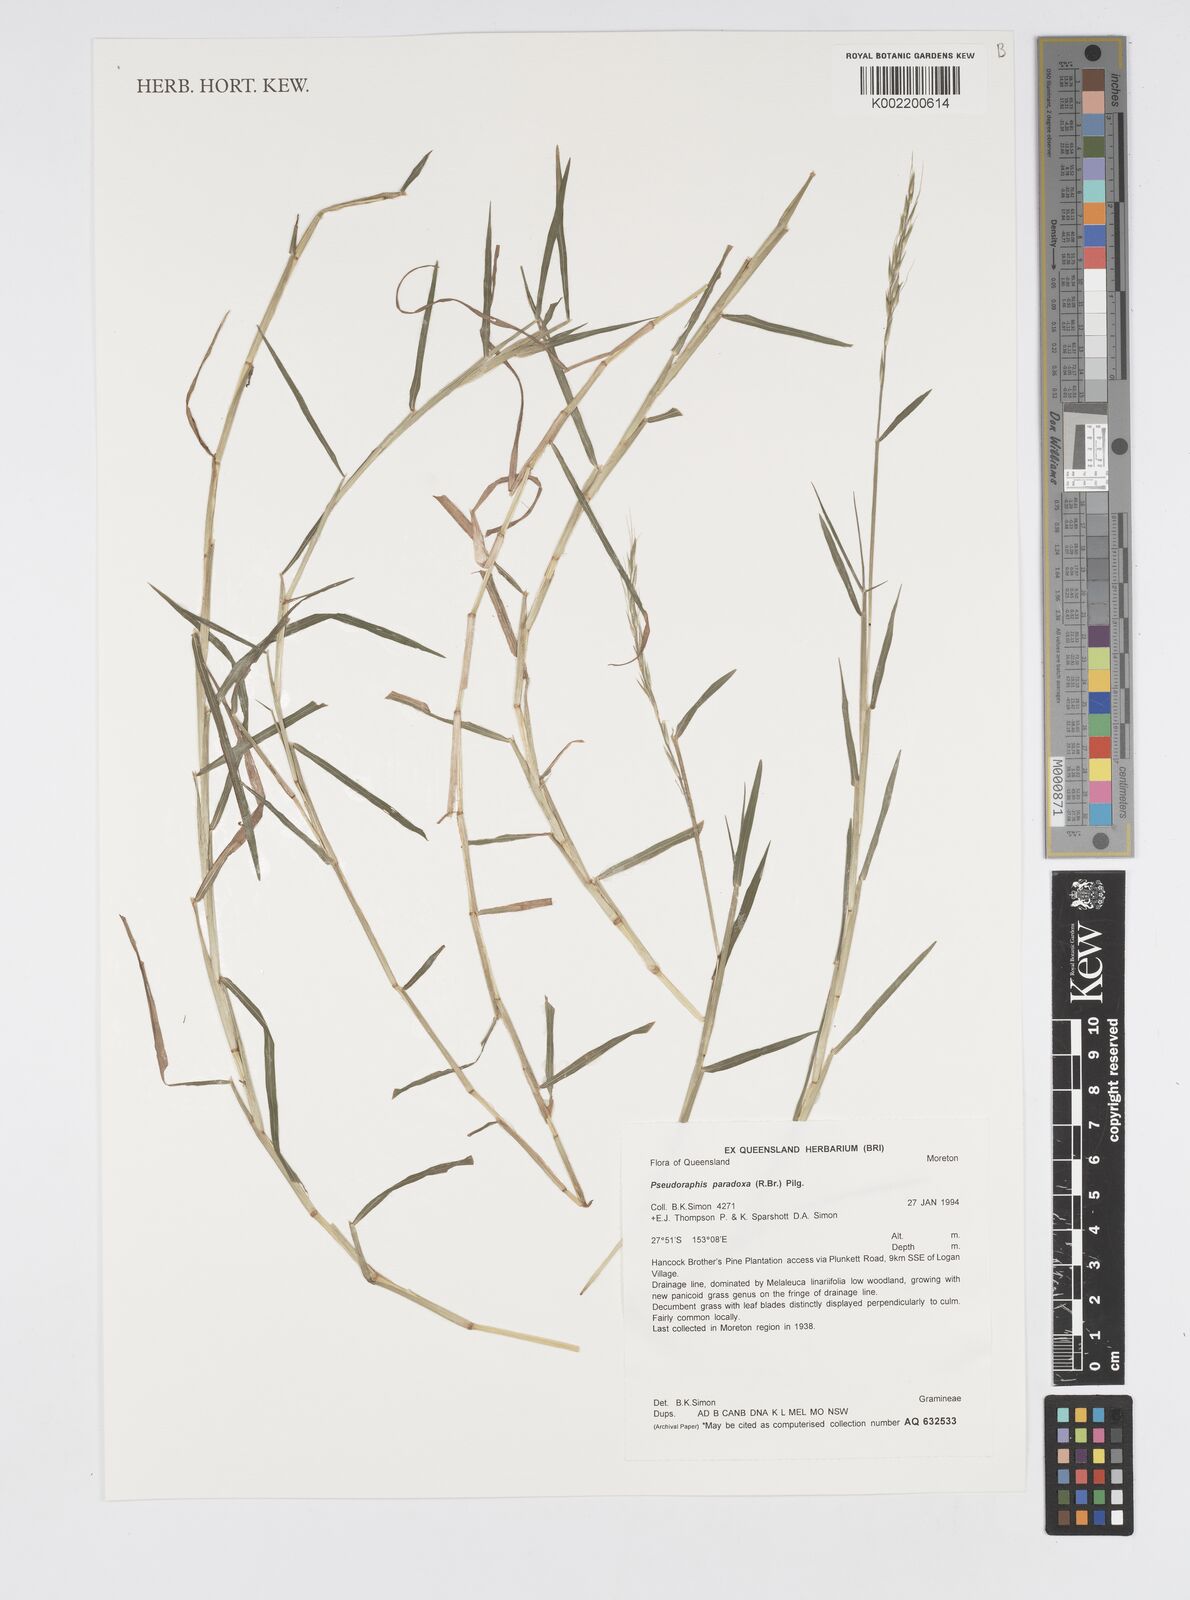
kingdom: Plantae
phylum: Tracheophyta
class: Liliopsida
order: Poales
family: Poaceae
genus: Pseudoraphis
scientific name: Pseudoraphis paradoxa
